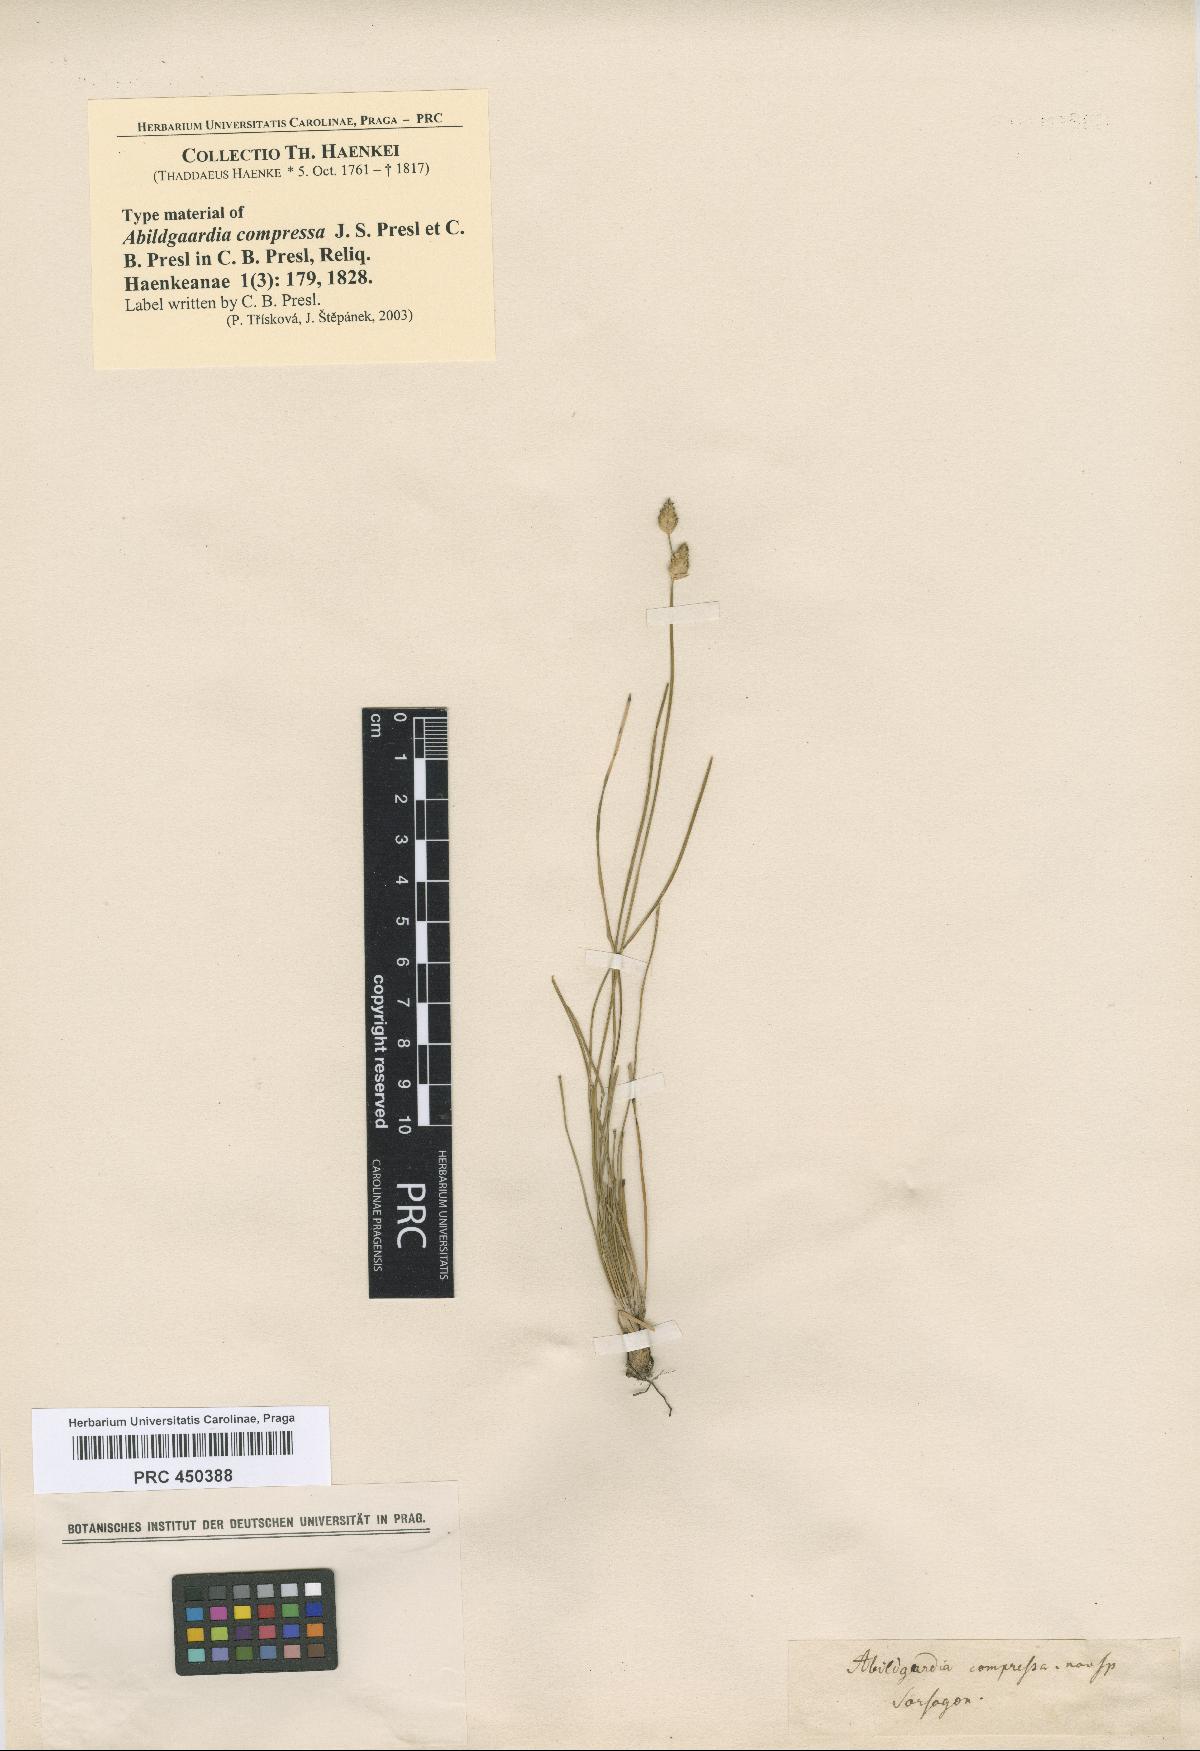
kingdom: Plantae
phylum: Tracheophyta
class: Liliopsida
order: Poales
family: Cyperaceae
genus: Abildgaardia
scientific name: Abildgaardia ovata
